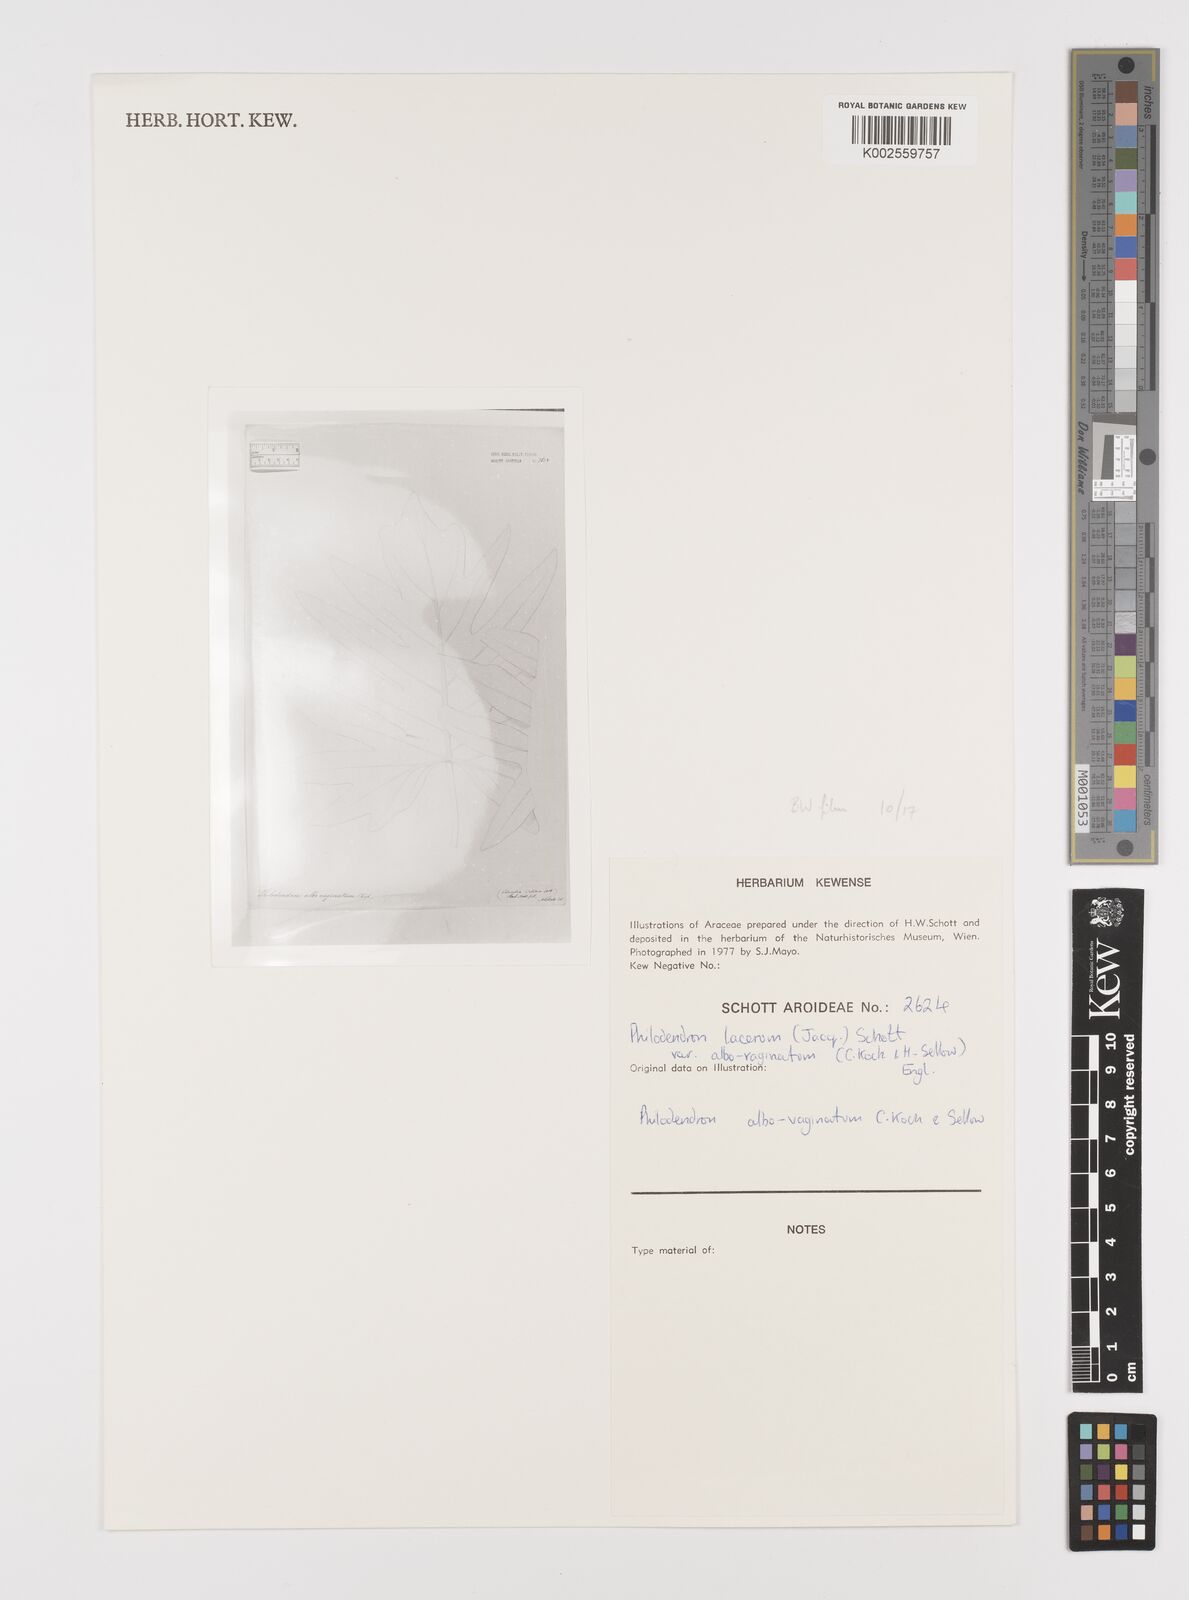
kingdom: Plantae
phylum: Tracheophyta
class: Liliopsida
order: Alismatales
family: Araceae
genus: Philodendron
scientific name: Philodendron lacerum
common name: Philodendron
